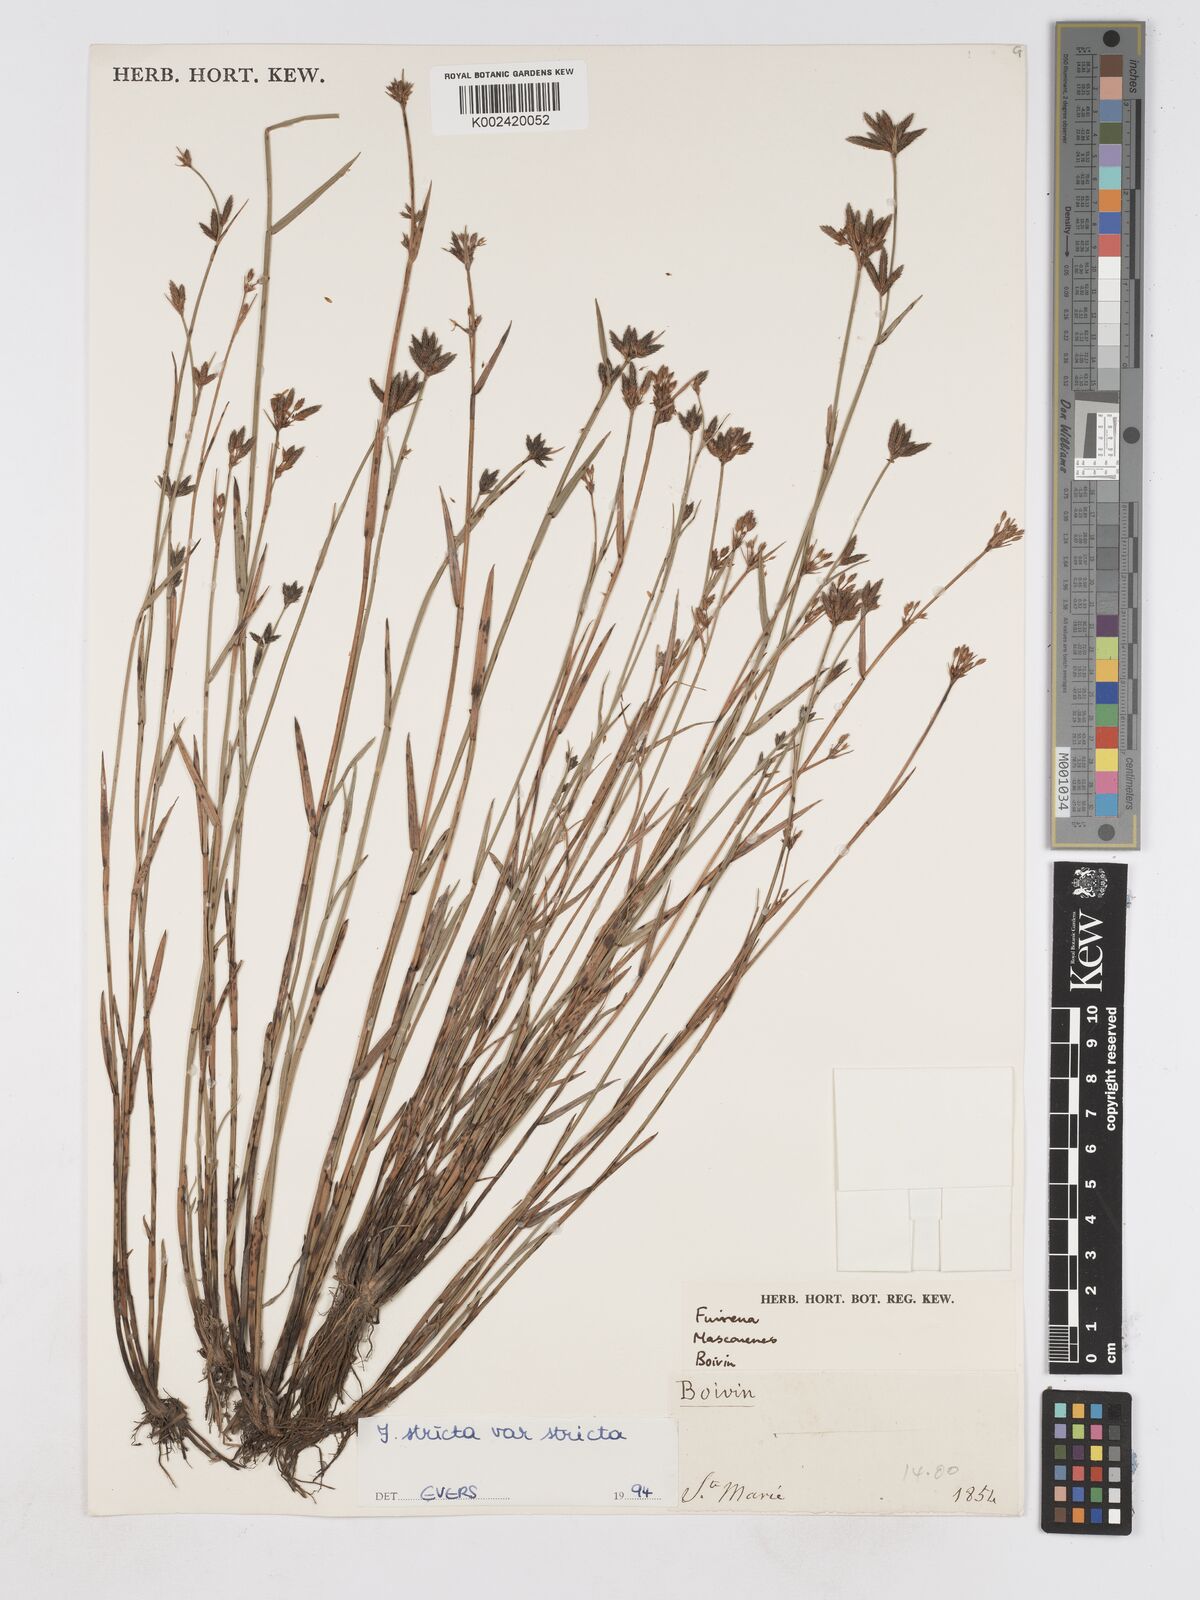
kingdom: Plantae
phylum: Tracheophyta
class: Liliopsida
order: Poales
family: Cyperaceae
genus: Fuirena
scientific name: Fuirena stricta
